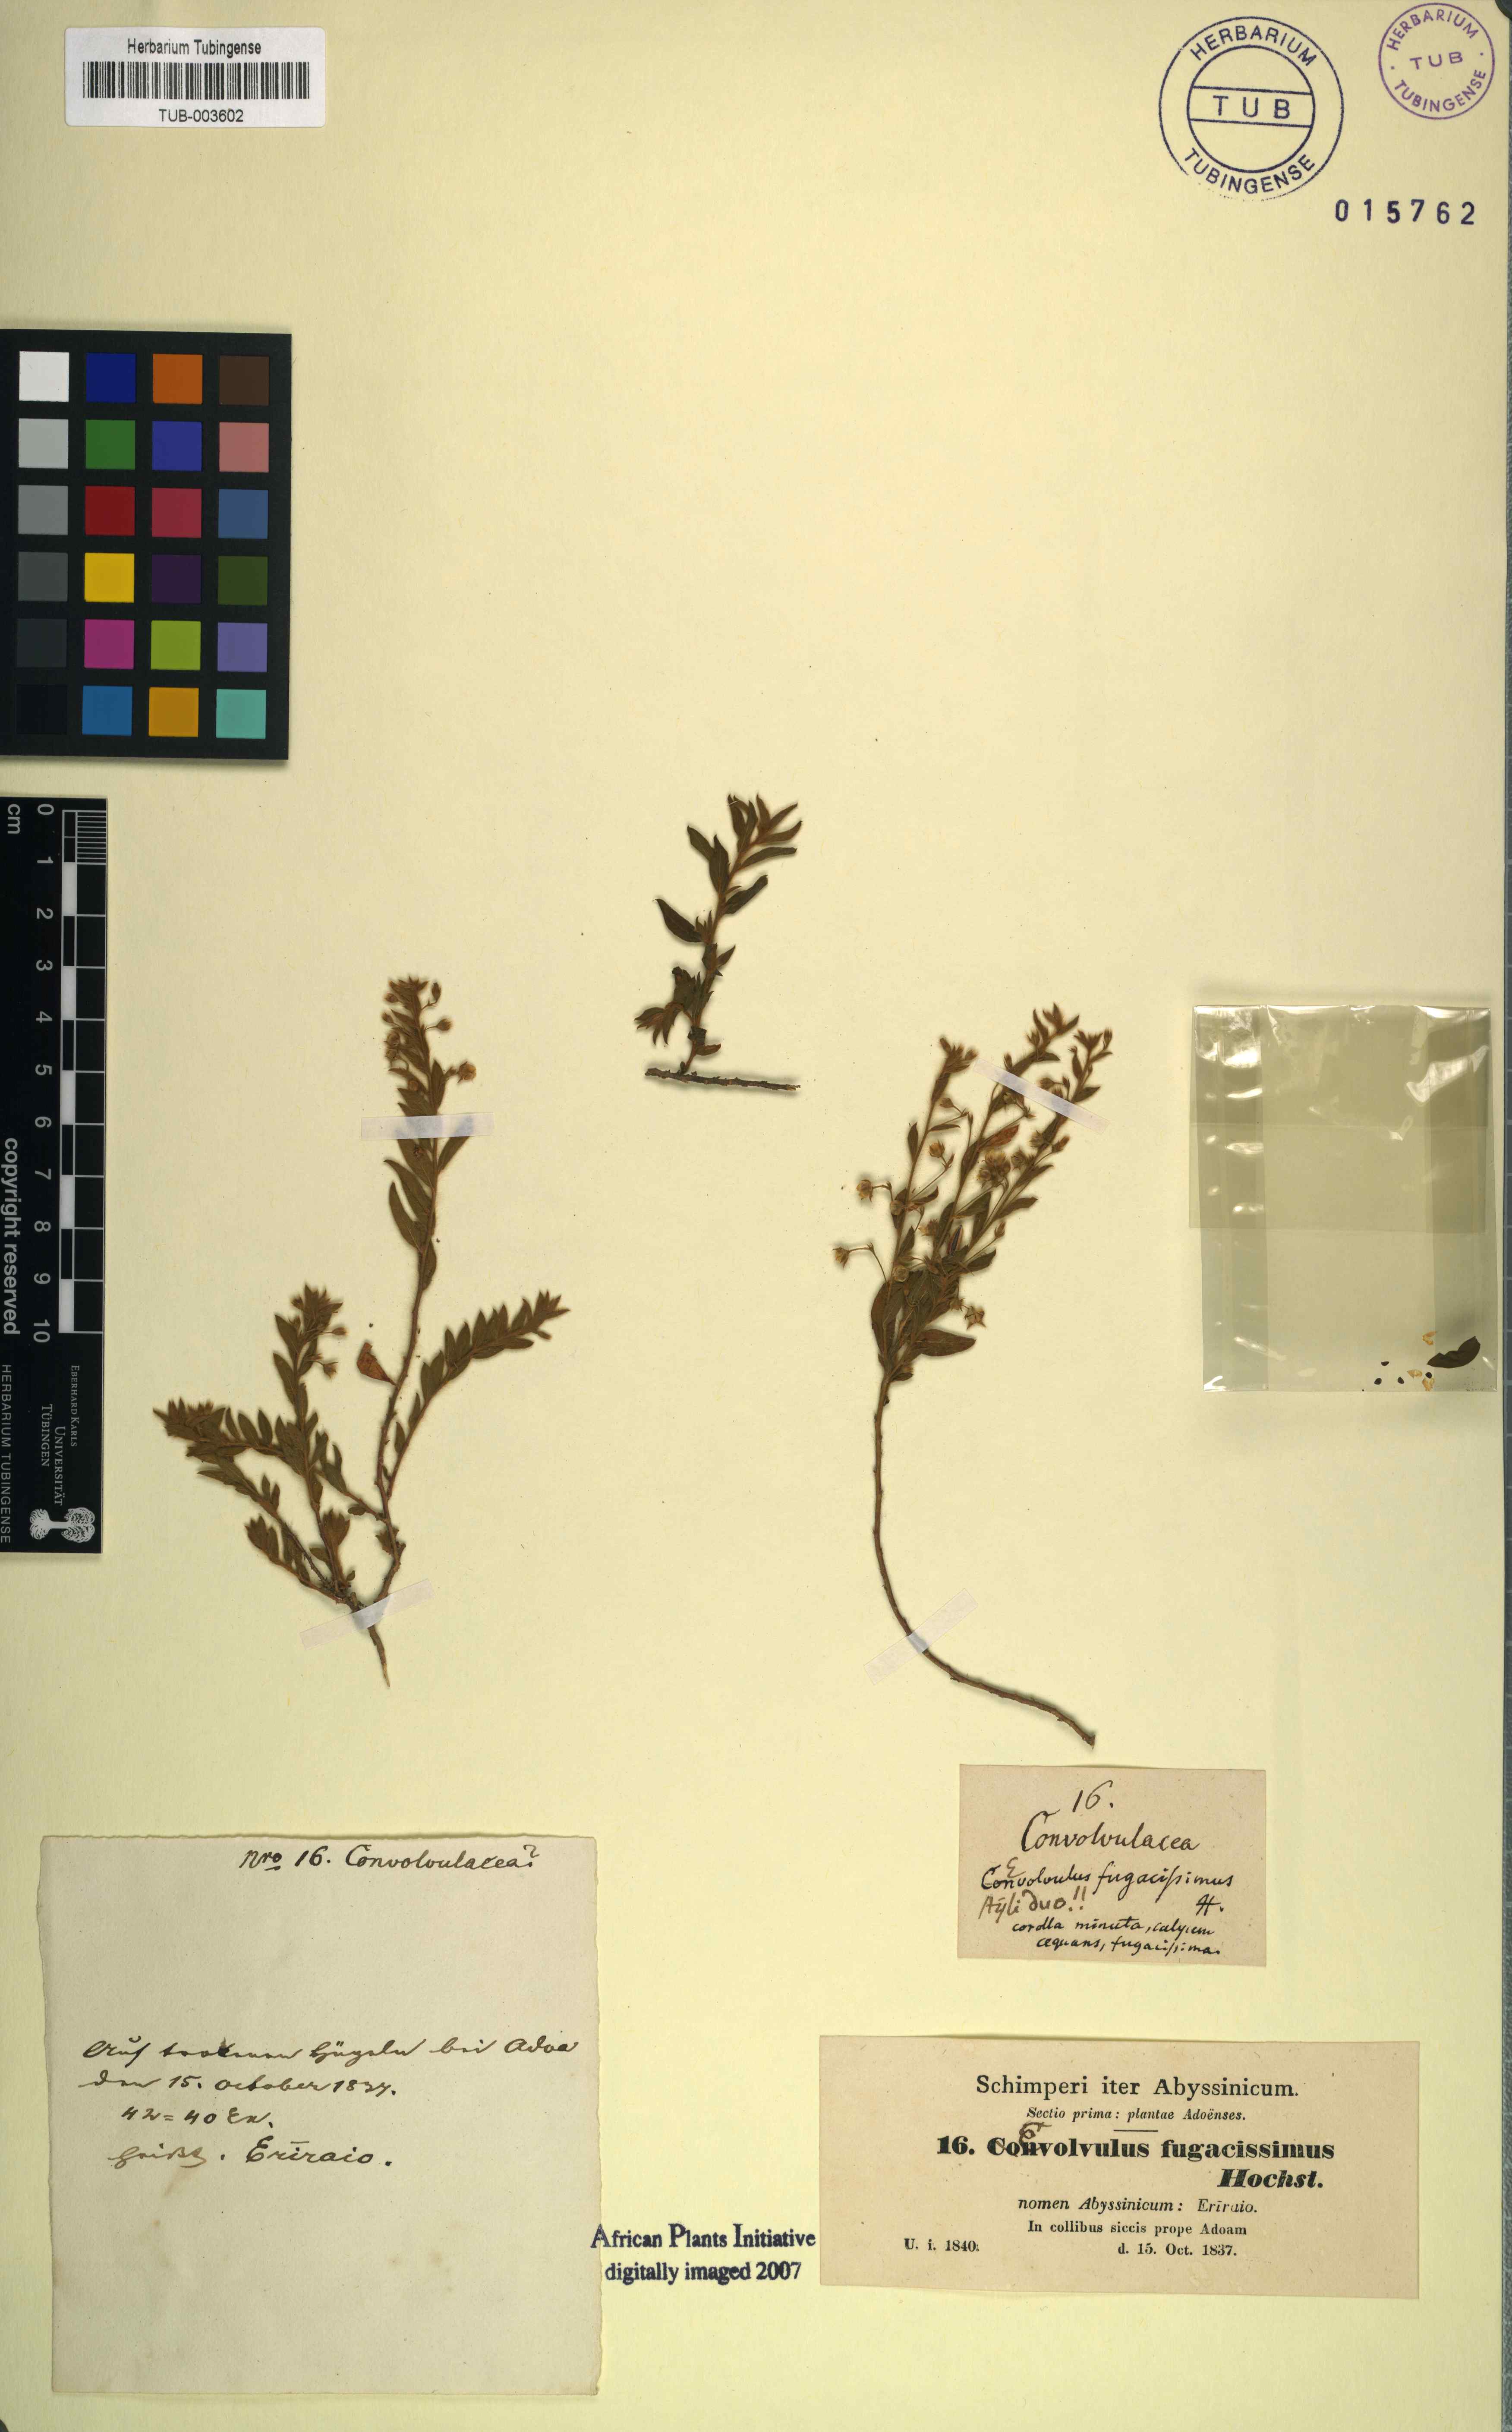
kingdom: Plantae
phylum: Tracheophyta
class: Magnoliopsida
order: Solanales
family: Convolvulaceae
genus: Evolvulus
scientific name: Evolvulus alsinoides
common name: Slender dwarf morning-glory
